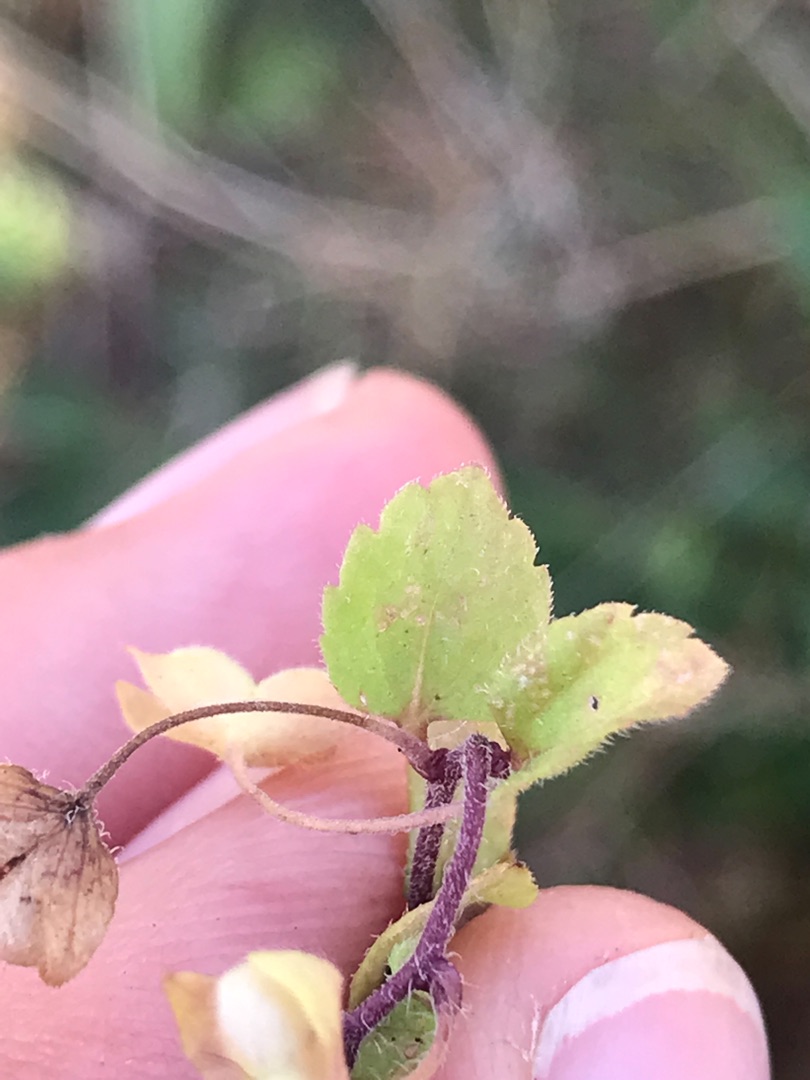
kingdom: Plantae
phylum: Tracheophyta
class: Magnoliopsida
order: Lamiales
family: Plantaginaceae
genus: Veronica
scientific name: Veronica persica
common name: Storkronet ærenpris
